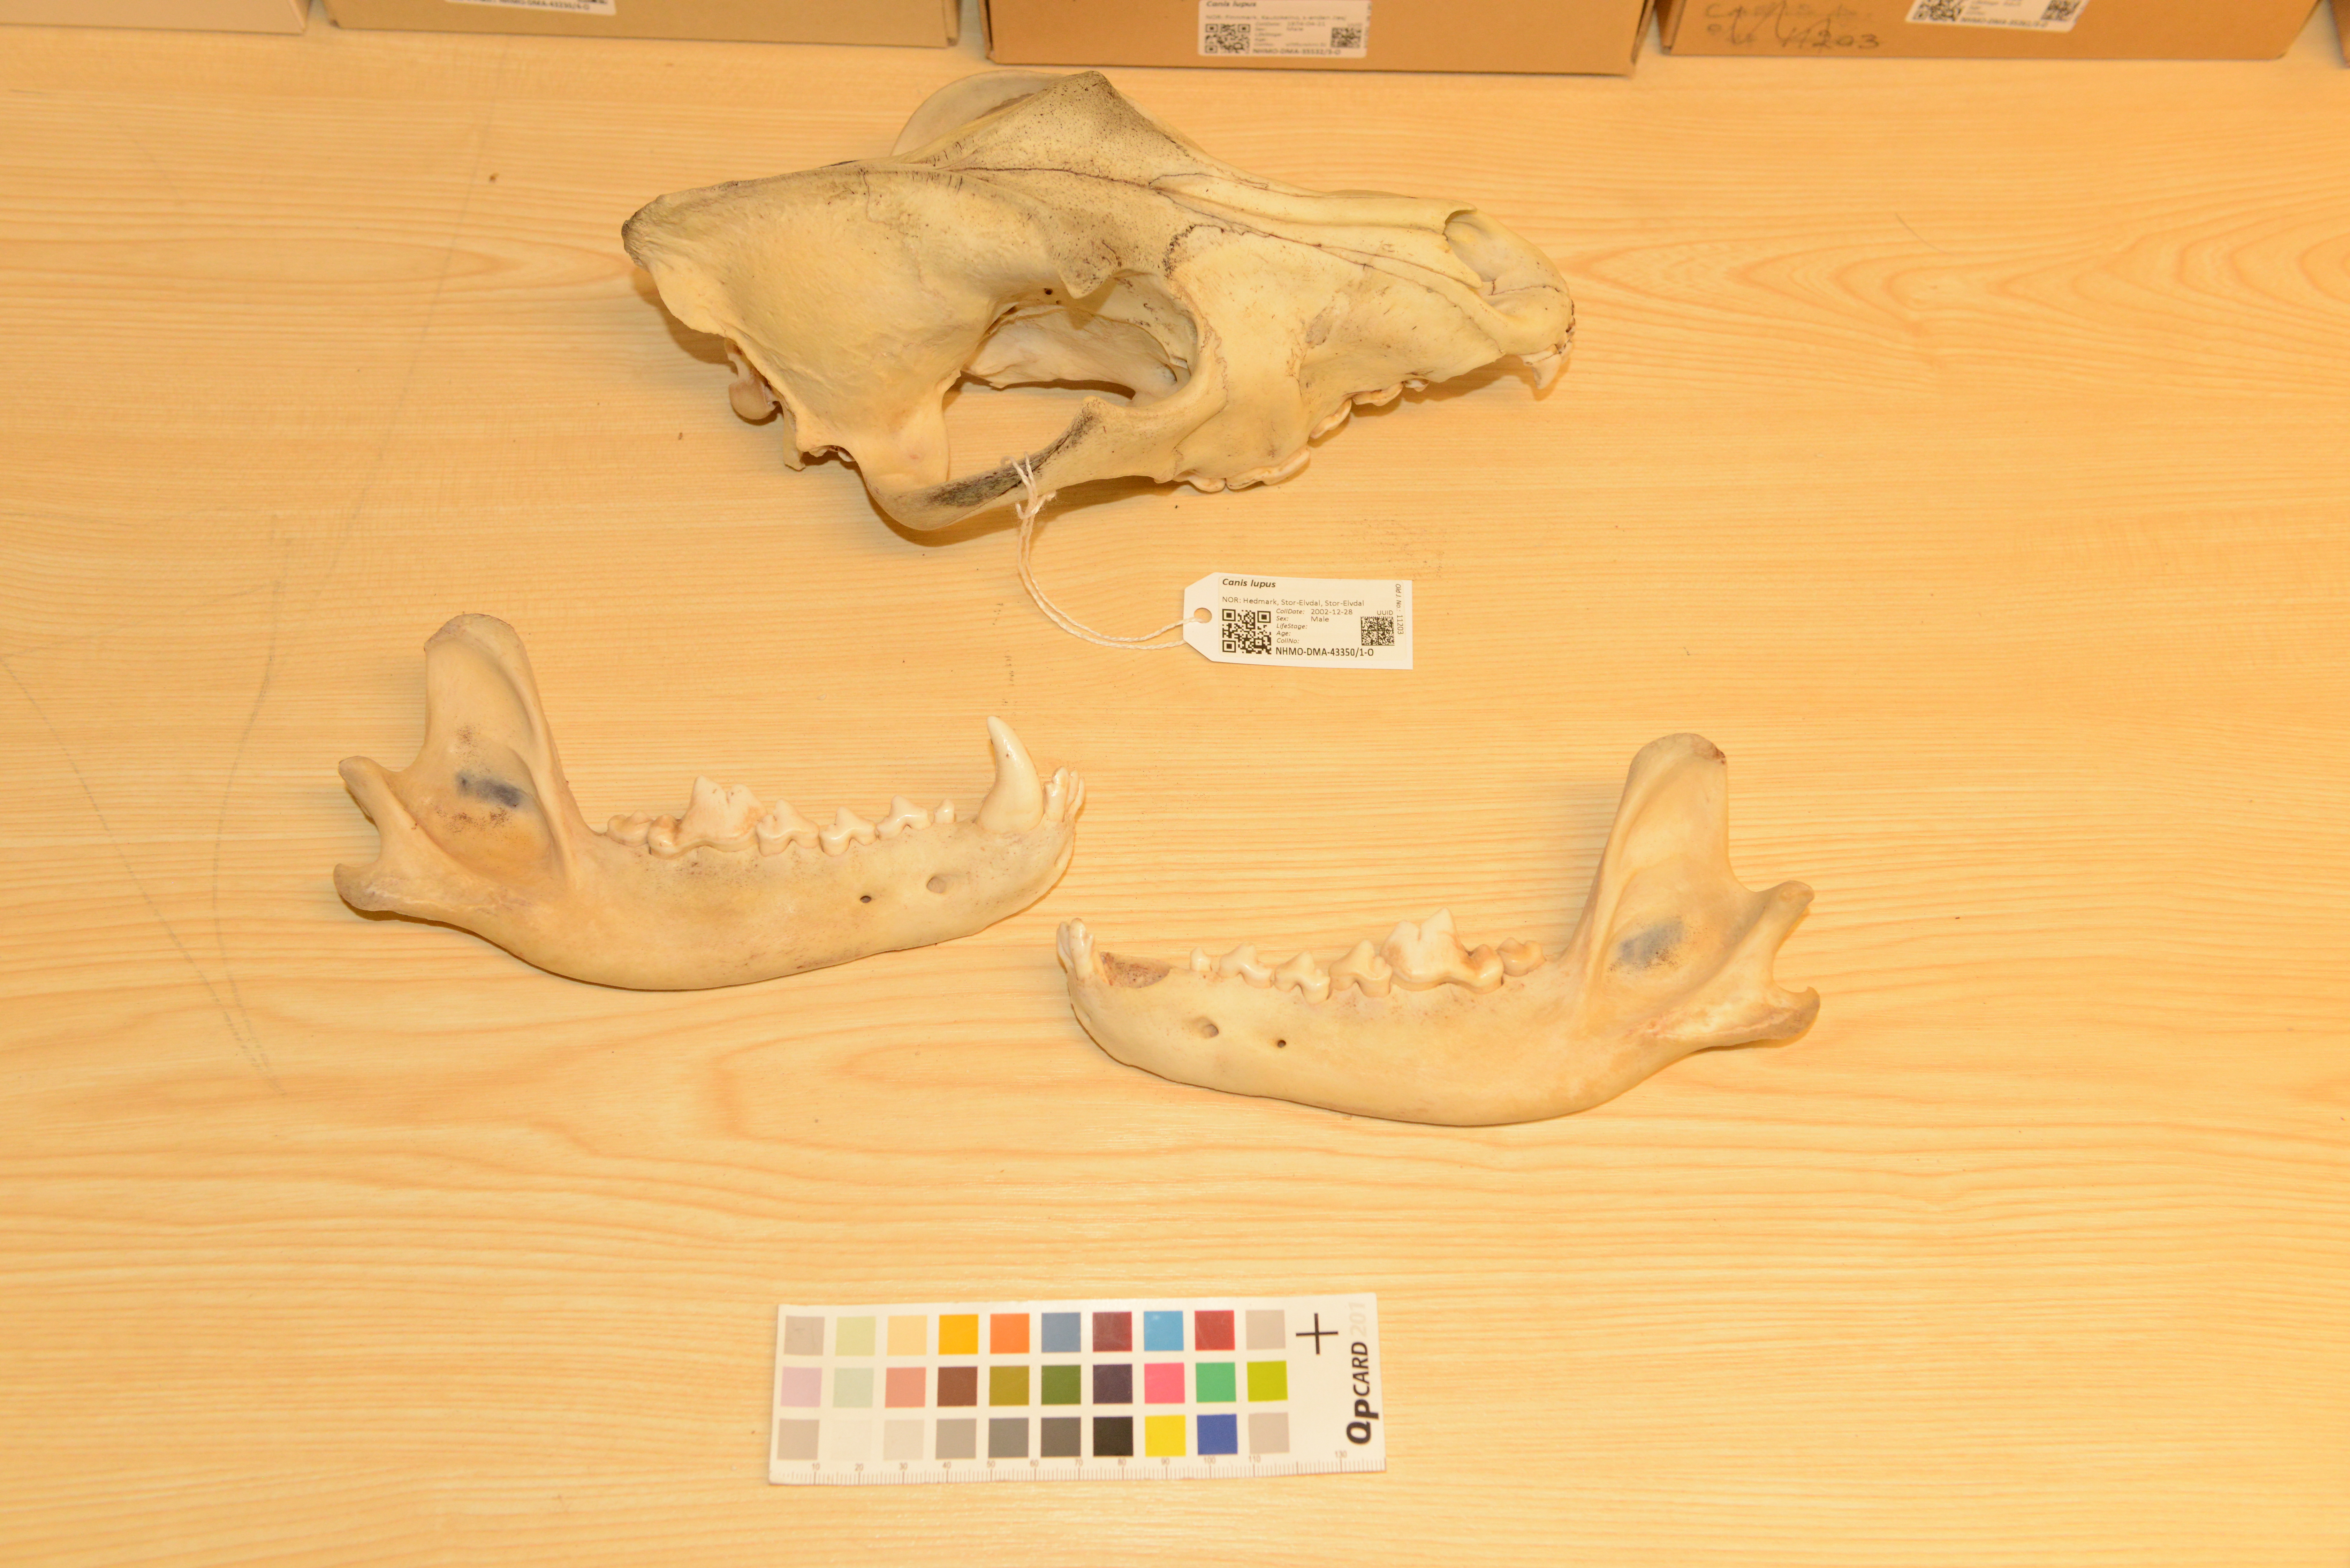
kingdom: Animalia
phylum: Chordata
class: Mammalia
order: Carnivora
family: Canidae
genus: Canis
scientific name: Canis lupus
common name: Gray wolf
